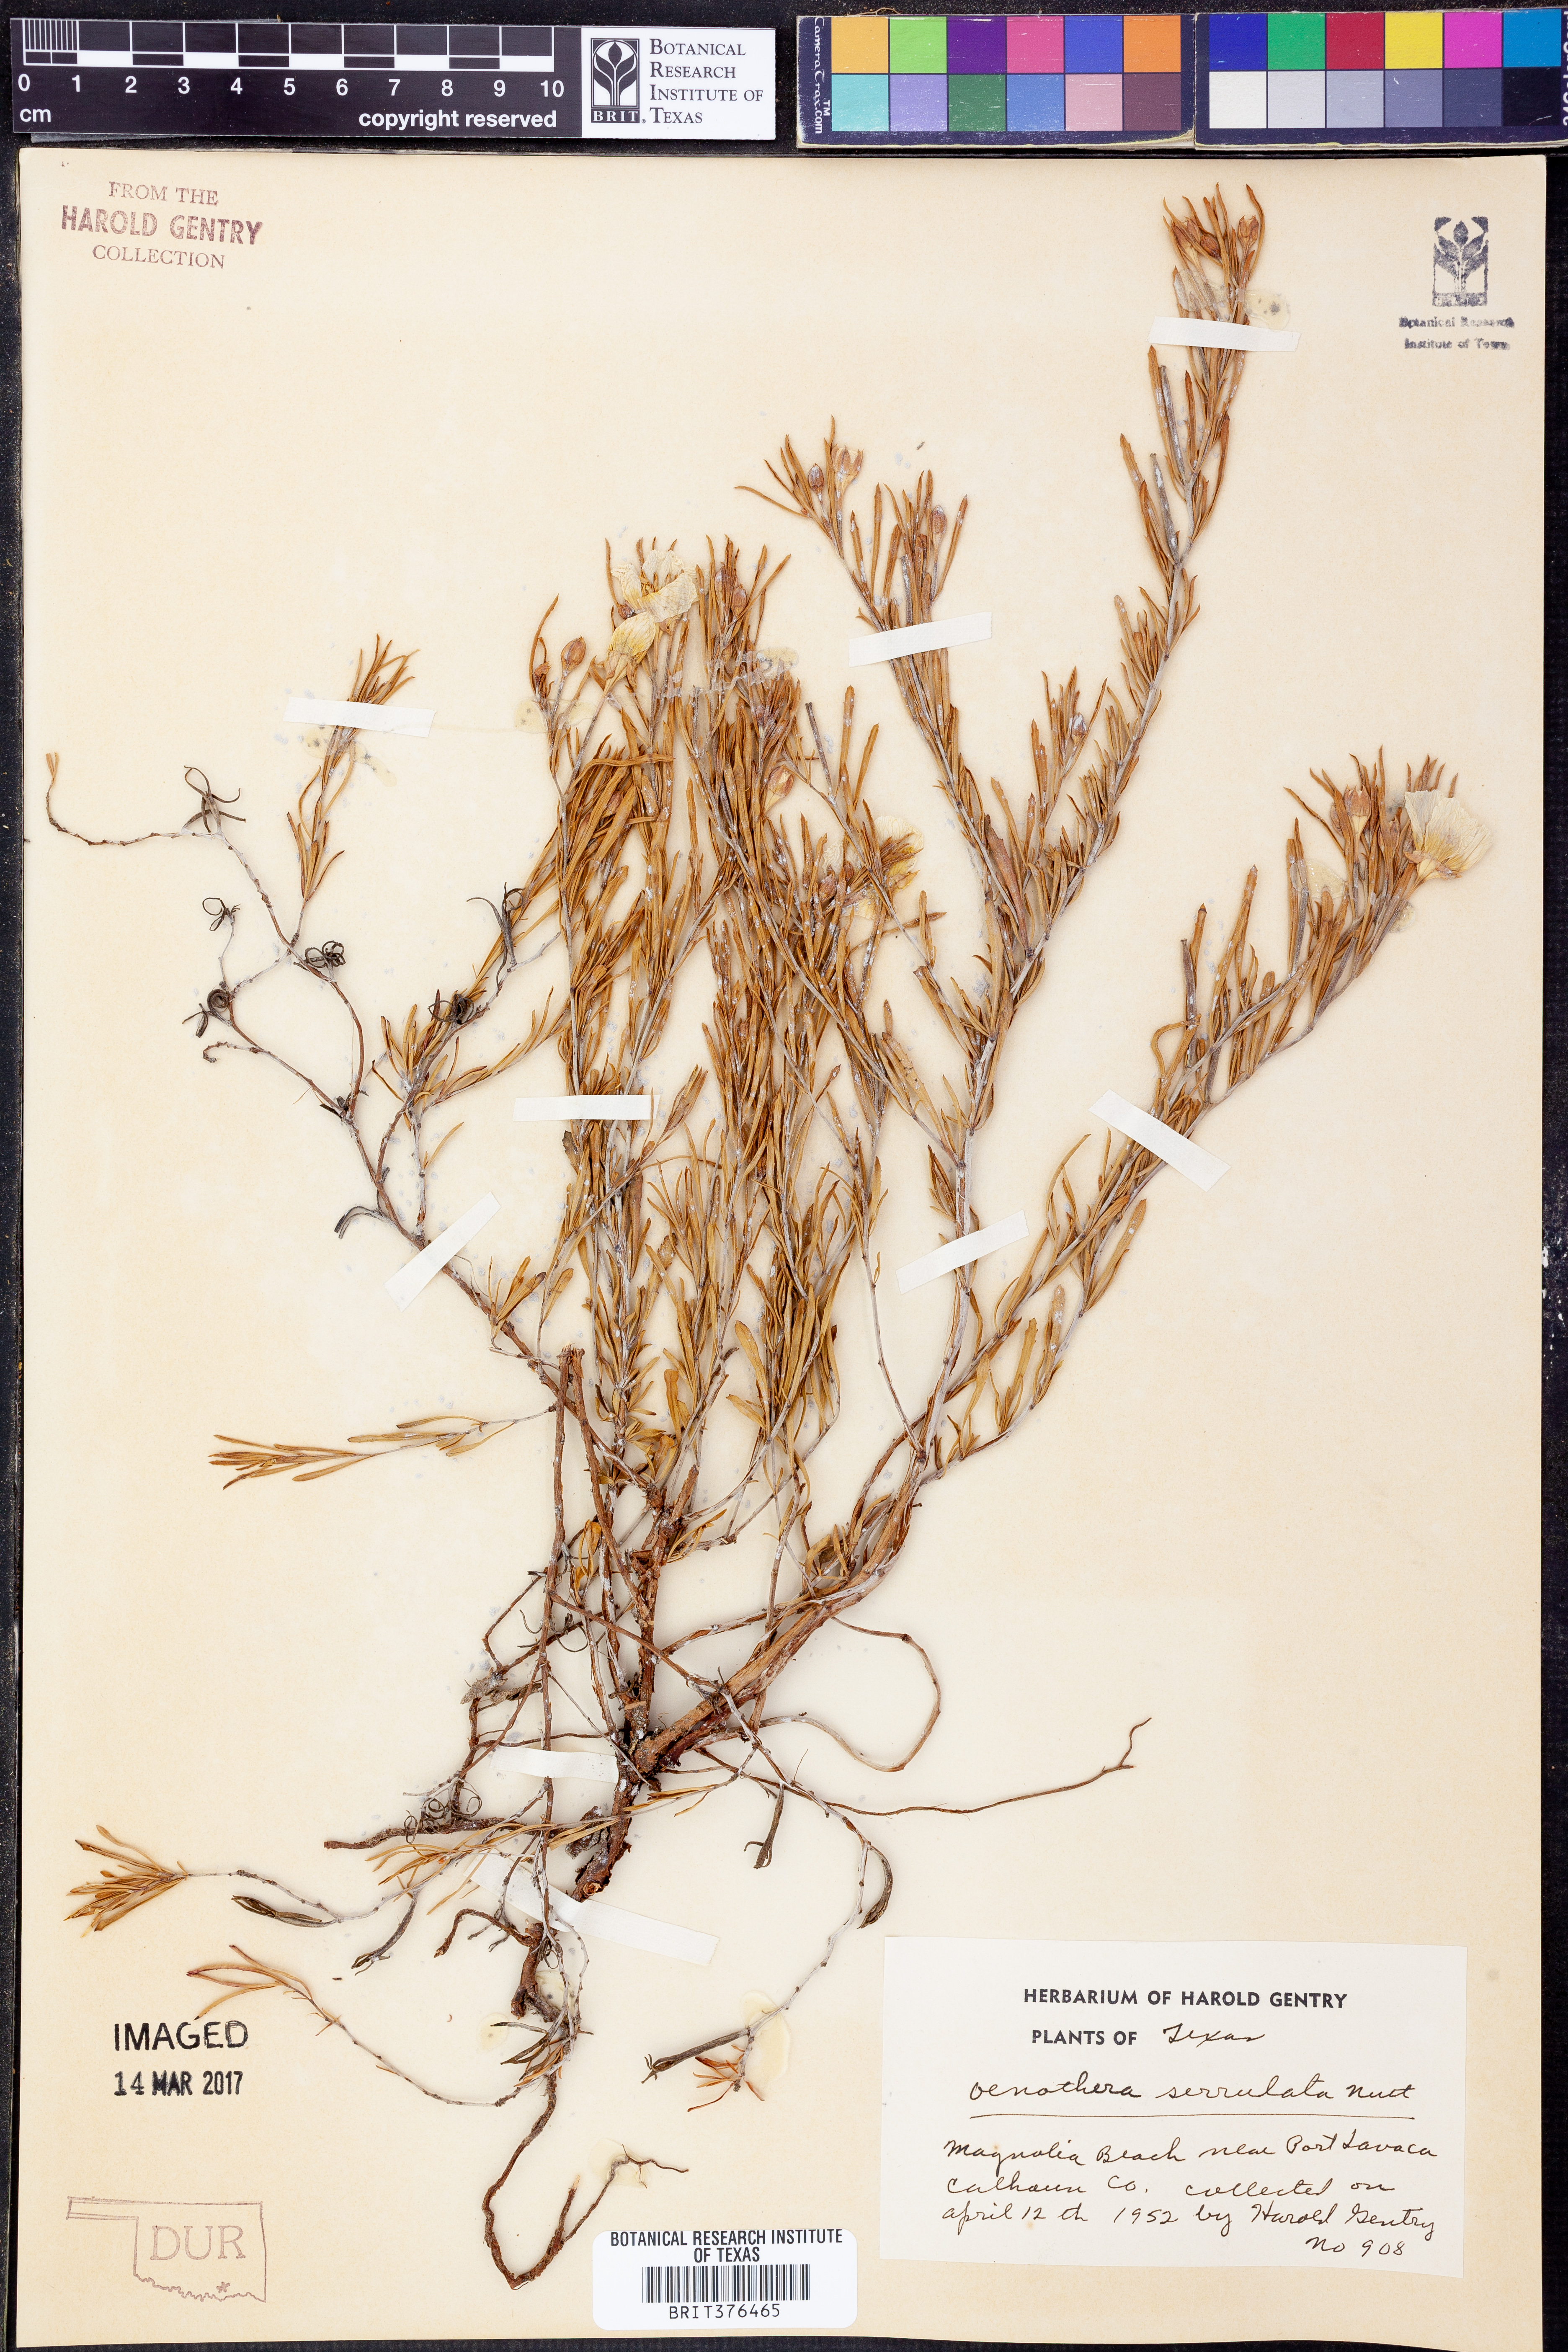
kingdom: Plantae
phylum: Tracheophyta
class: Magnoliopsida
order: Myrtales
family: Onagraceae
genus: Oenothera
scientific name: Oenothera serrulata
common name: Half-shrub calylophus
